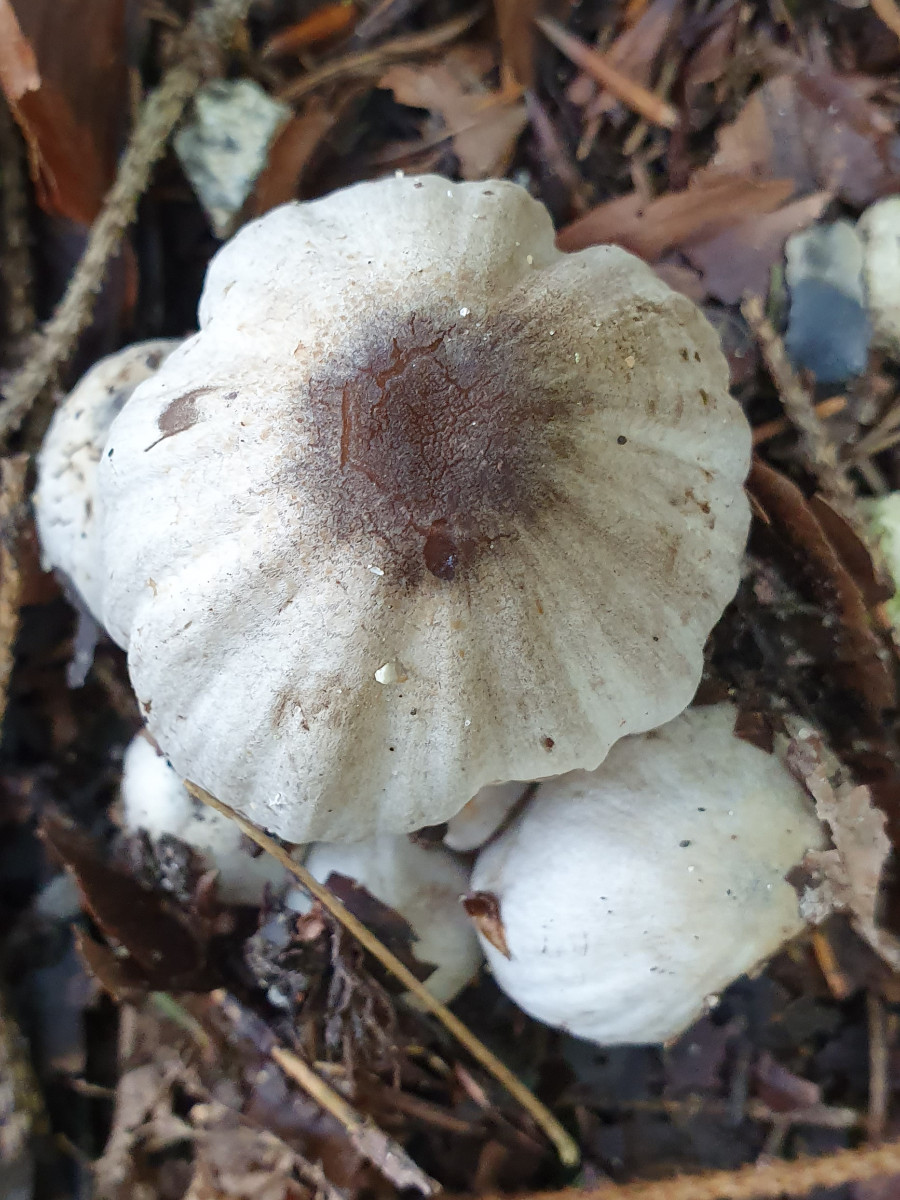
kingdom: Fungi
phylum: Basidiomycota
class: Agaricomycetes
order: Agaricales
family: Psathyrellaceae
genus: Coprinopsis
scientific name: Coprinopsis atramentaria
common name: almindelig blækhat
